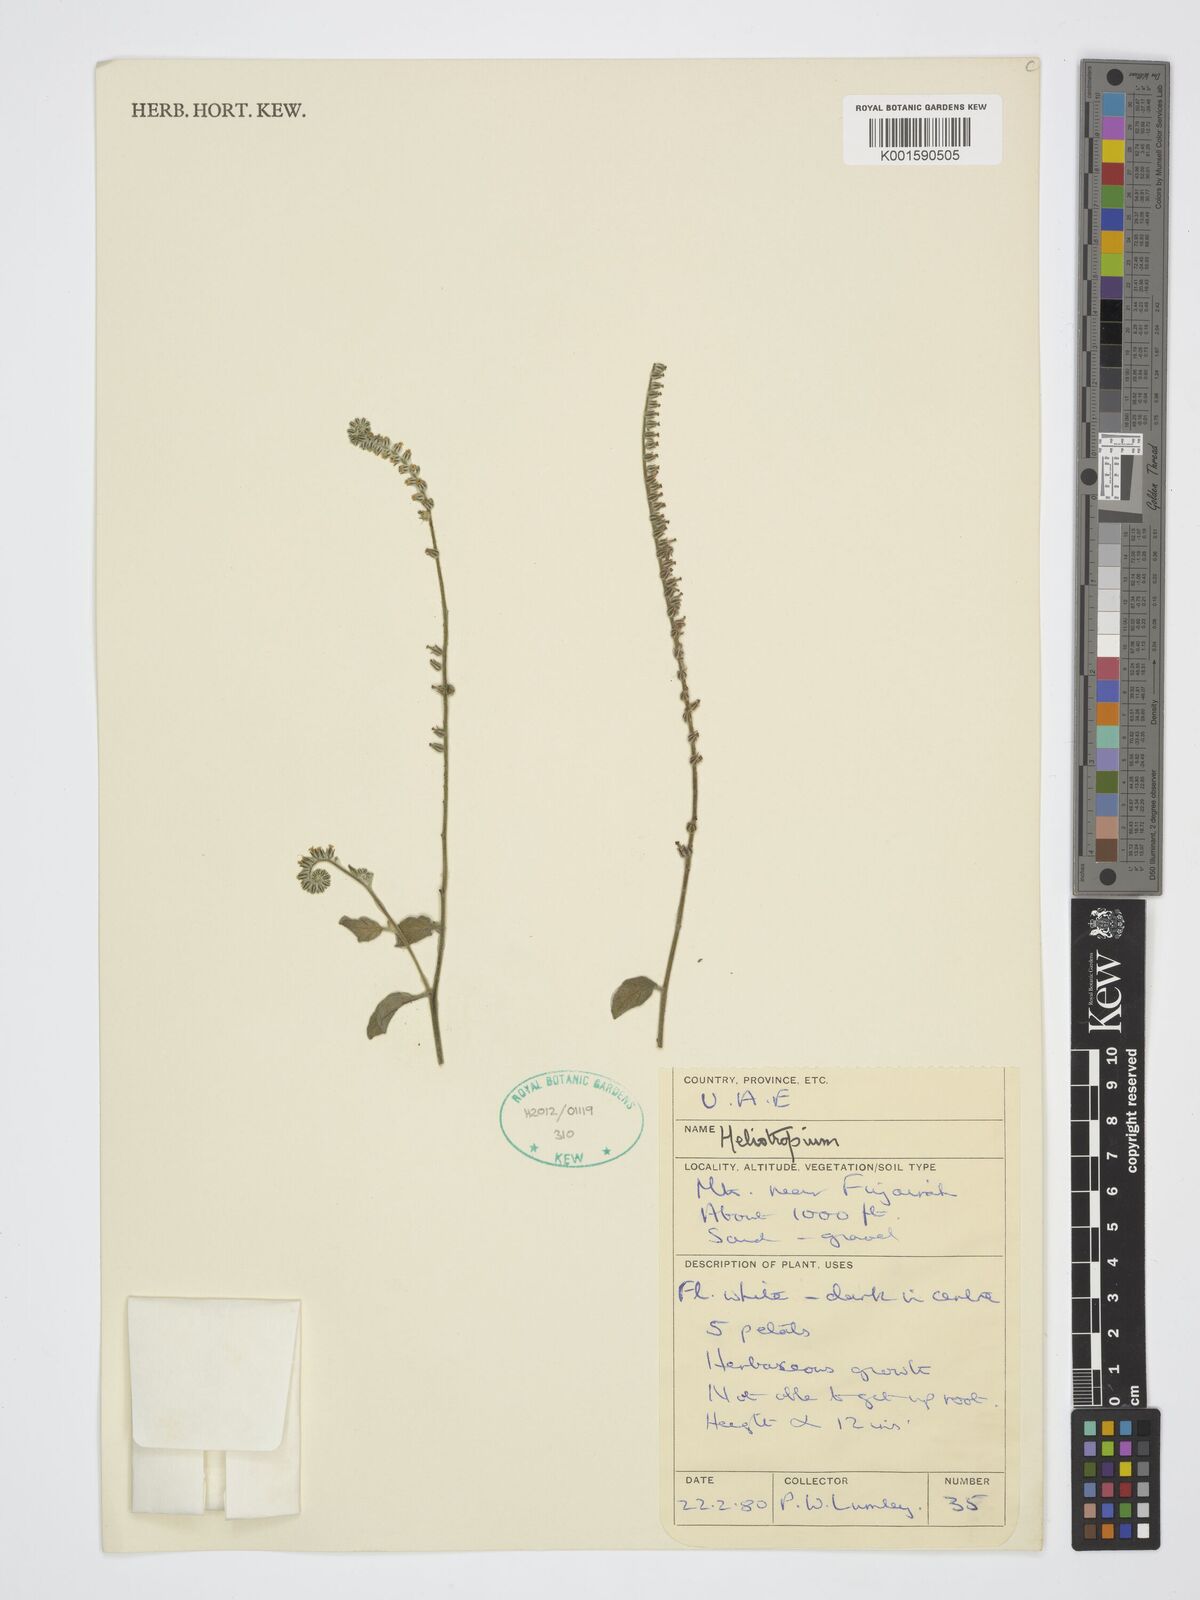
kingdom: Plantae
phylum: Tracheophyta
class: Magnoliopsida
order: Boraginales
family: Heliotropiaceae
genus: Heliotropium
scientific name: Heliotropium
